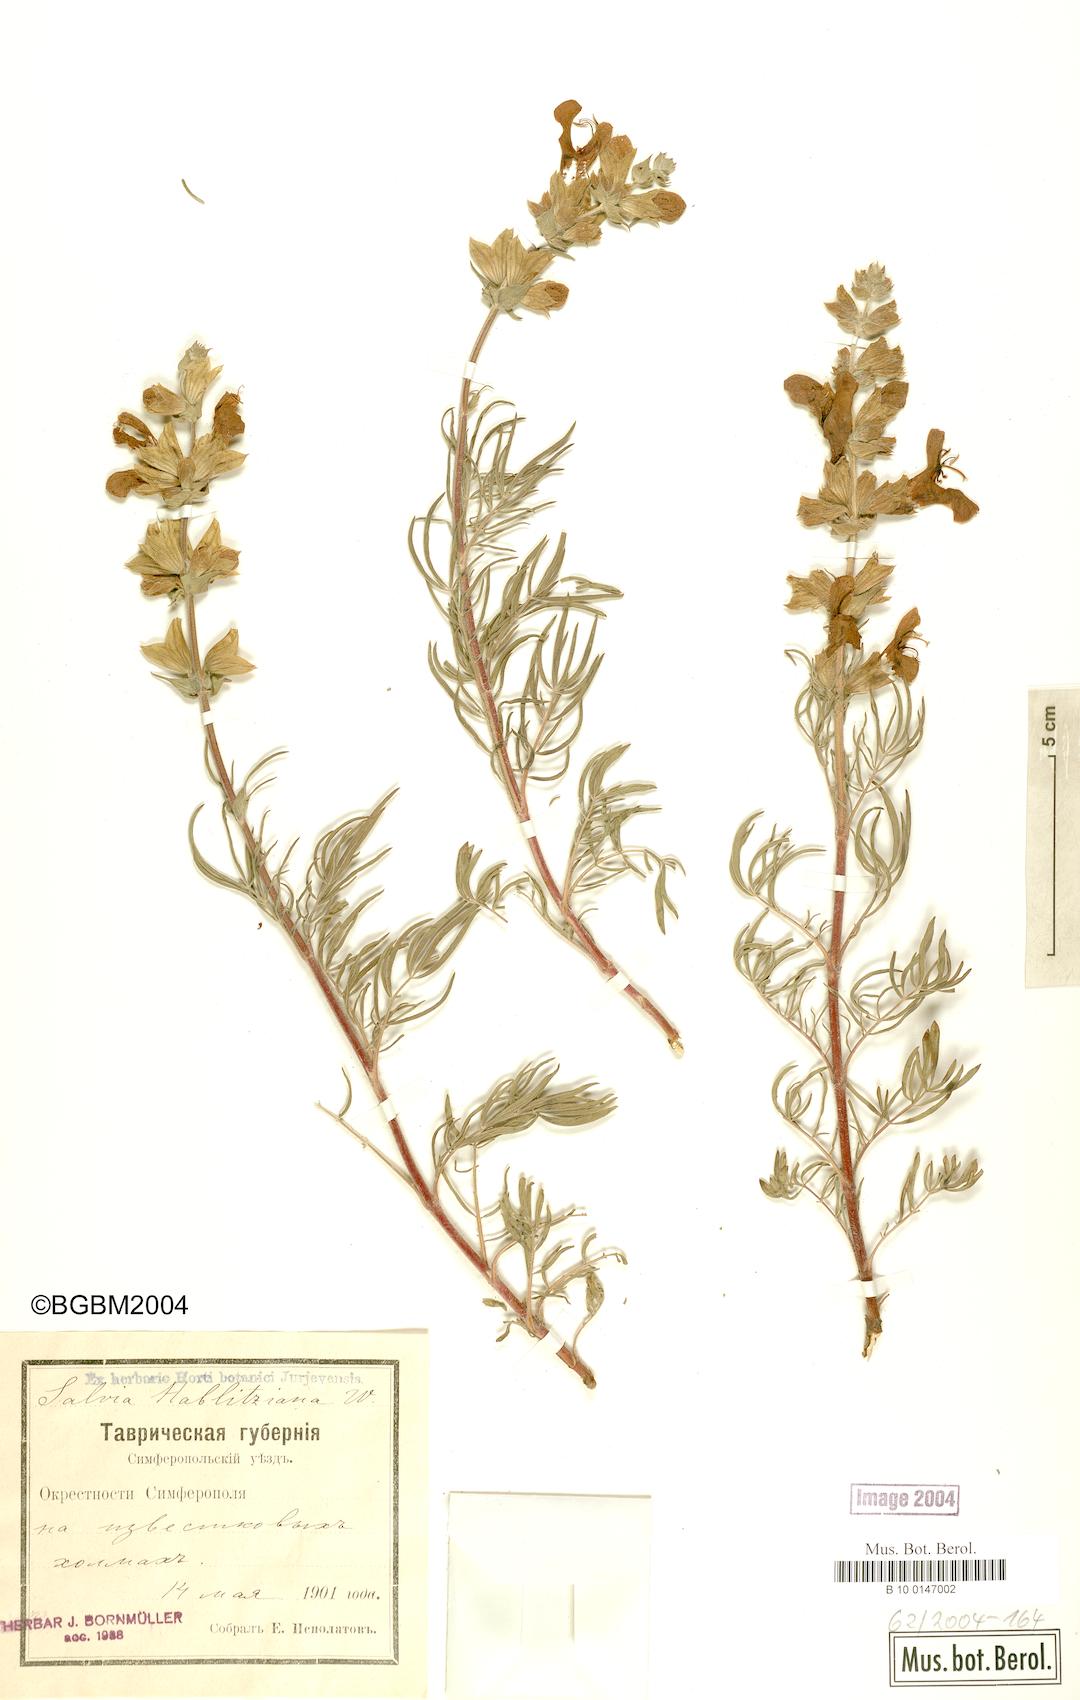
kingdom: Plantae
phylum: Tracheophyta
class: Magnoliopsida
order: Lamiales
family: Lamiaceae
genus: Salvia
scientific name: Salvia scabiosifolia
